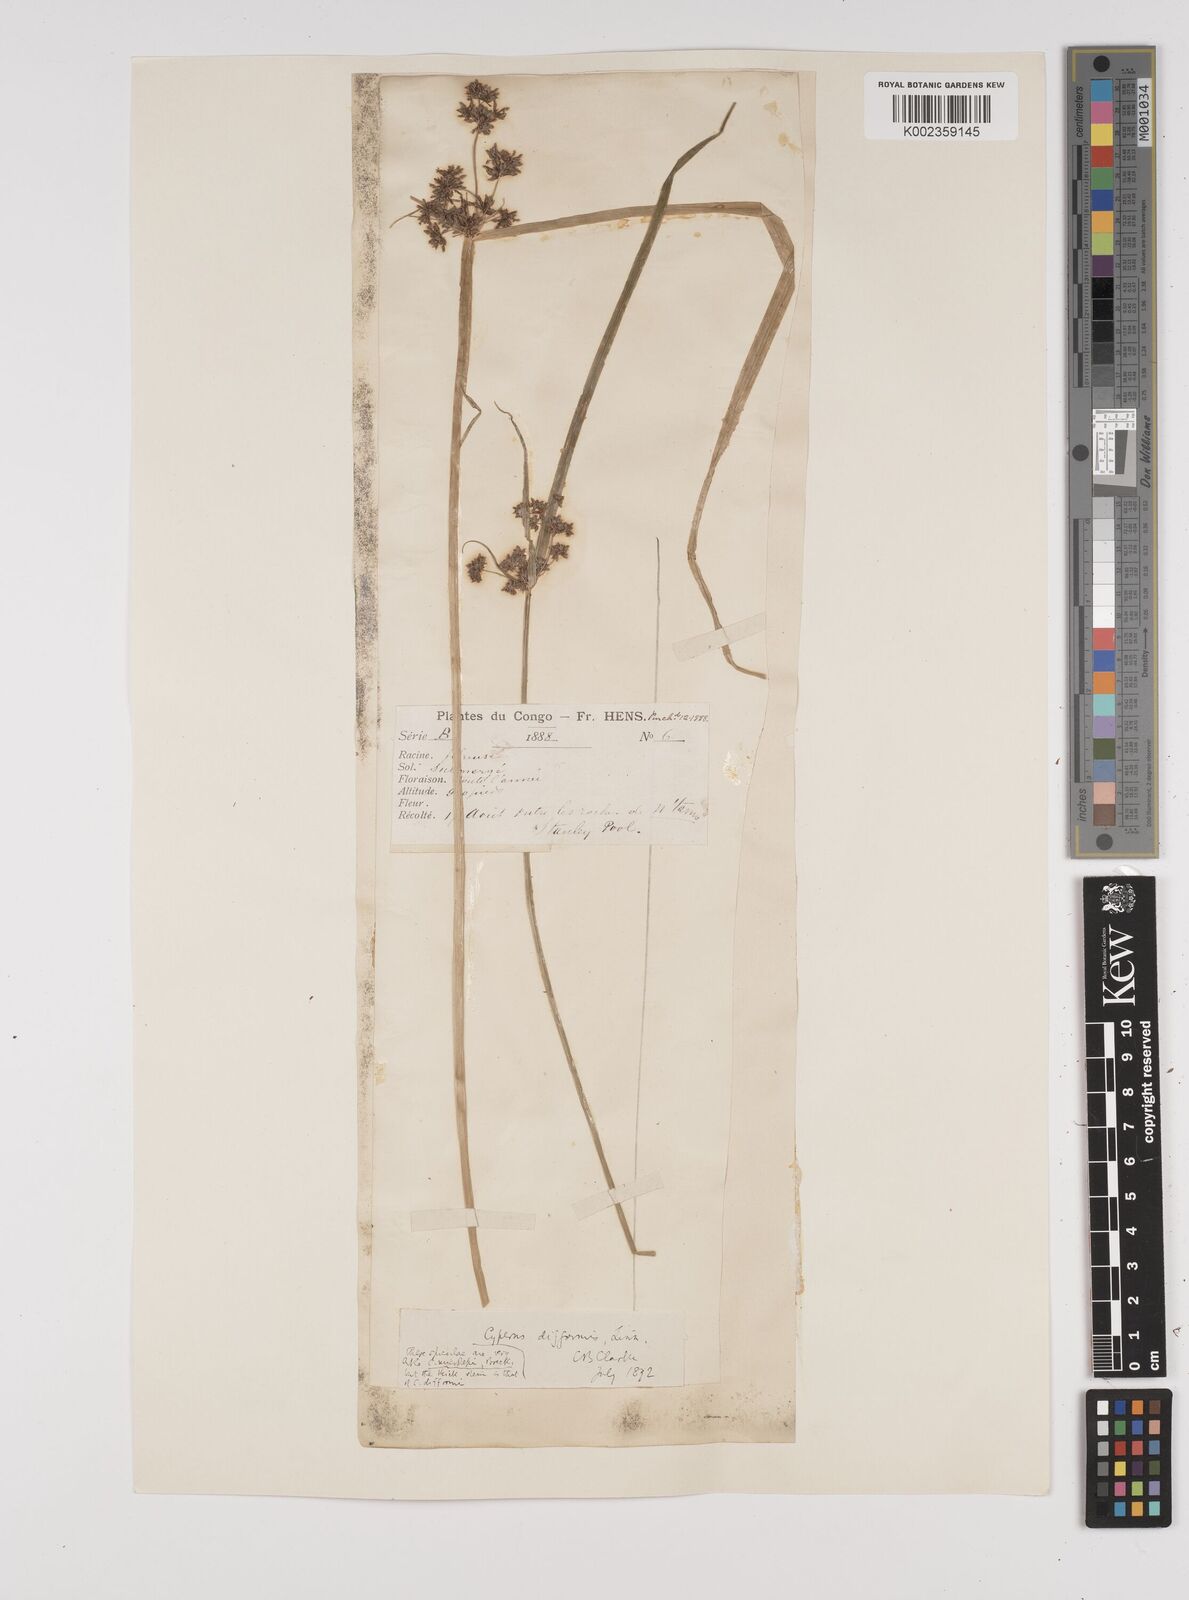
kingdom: Plantae
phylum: Tracheophyta
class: Liliopsida
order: Poales
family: Cyperaceae
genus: Cyperus
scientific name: Cyperus difformis
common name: Variable flatsedge
